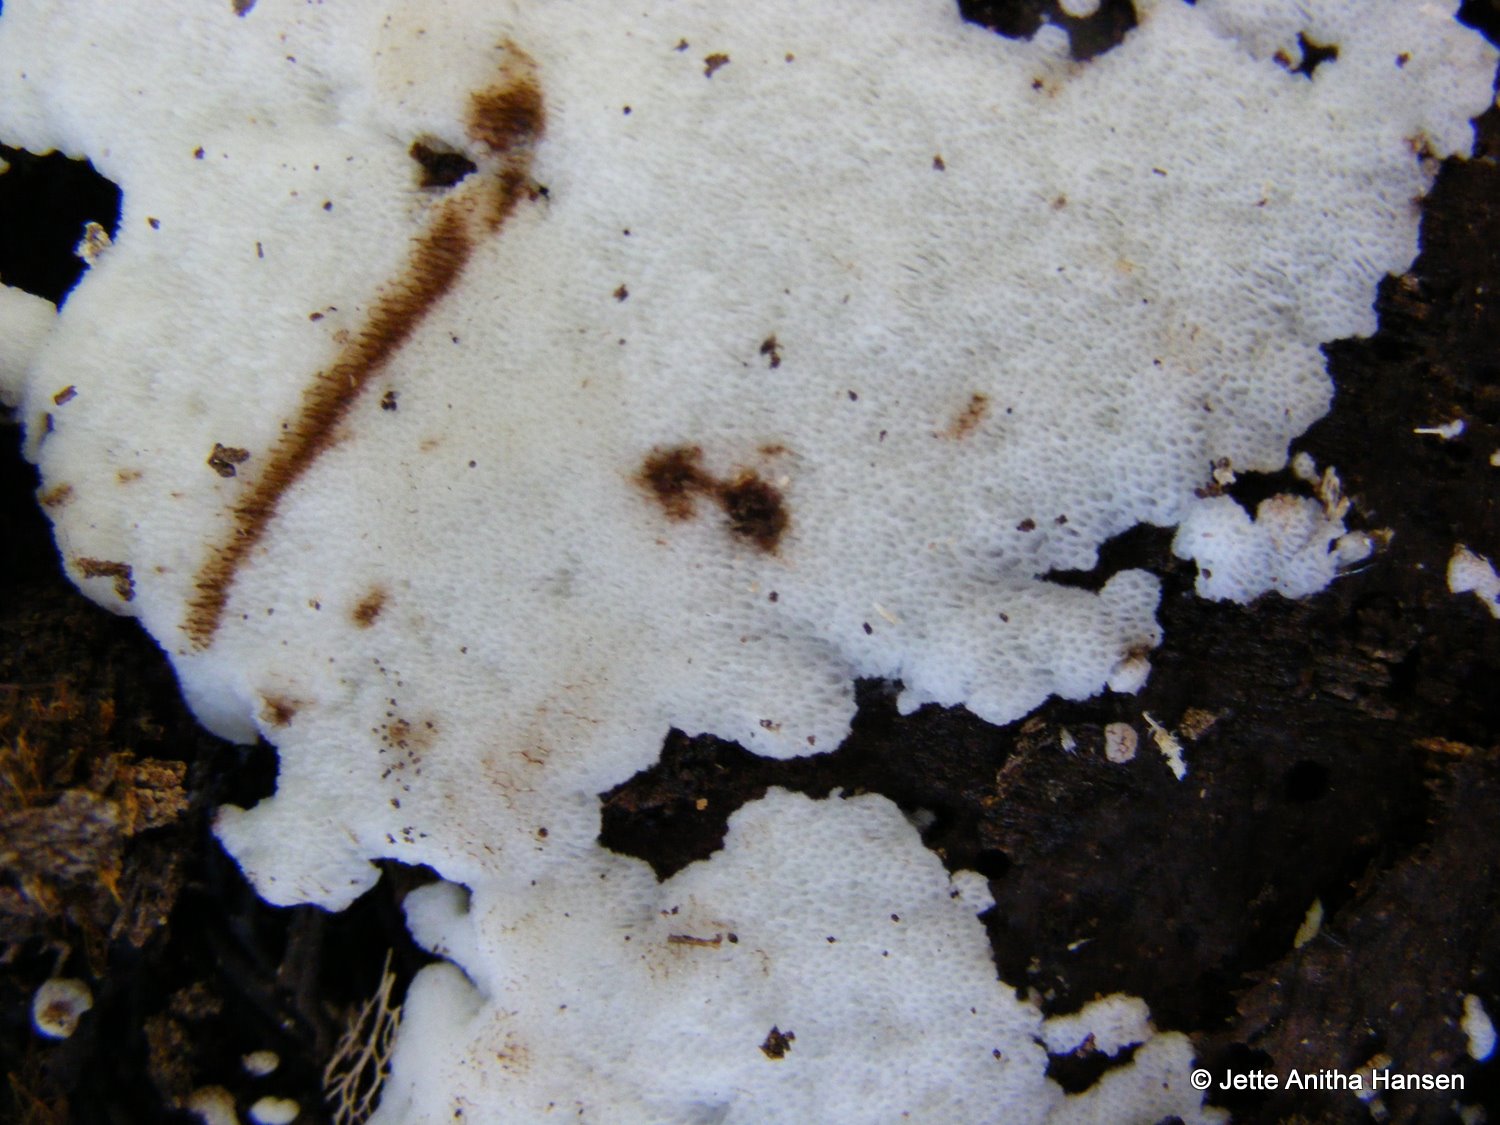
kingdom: Fungi
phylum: Basidiomycota
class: Agaricomycetes
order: Polyporales
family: Meripilaceae
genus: Rigidoporus
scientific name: Rigidoporus sanguinolentus
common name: blod-skorpeporesvamp
